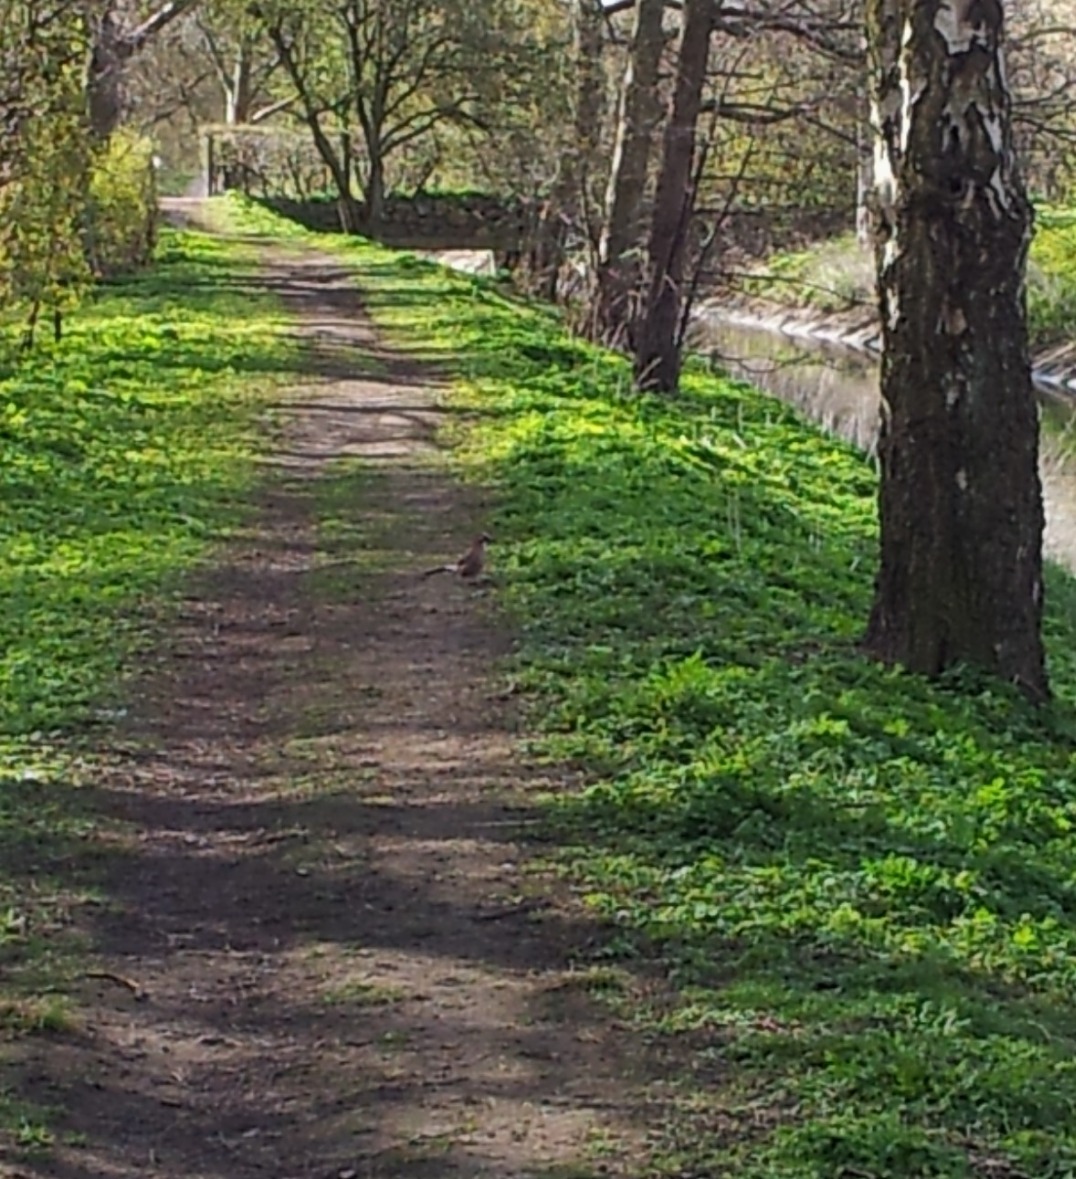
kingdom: Animalia
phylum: Chordata
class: Aves
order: Passeriformes
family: Corvidae
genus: Garrulus
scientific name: Garrulus glandarius
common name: Skovskade
